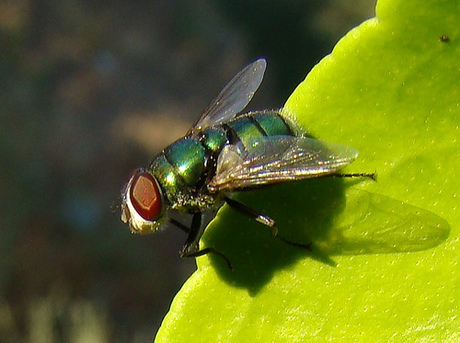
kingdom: Animalia
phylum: Arthropoda
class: Insecta
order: Diptera
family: Calliphoridae
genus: Chrysomya
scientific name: Chrysomya albiceps
